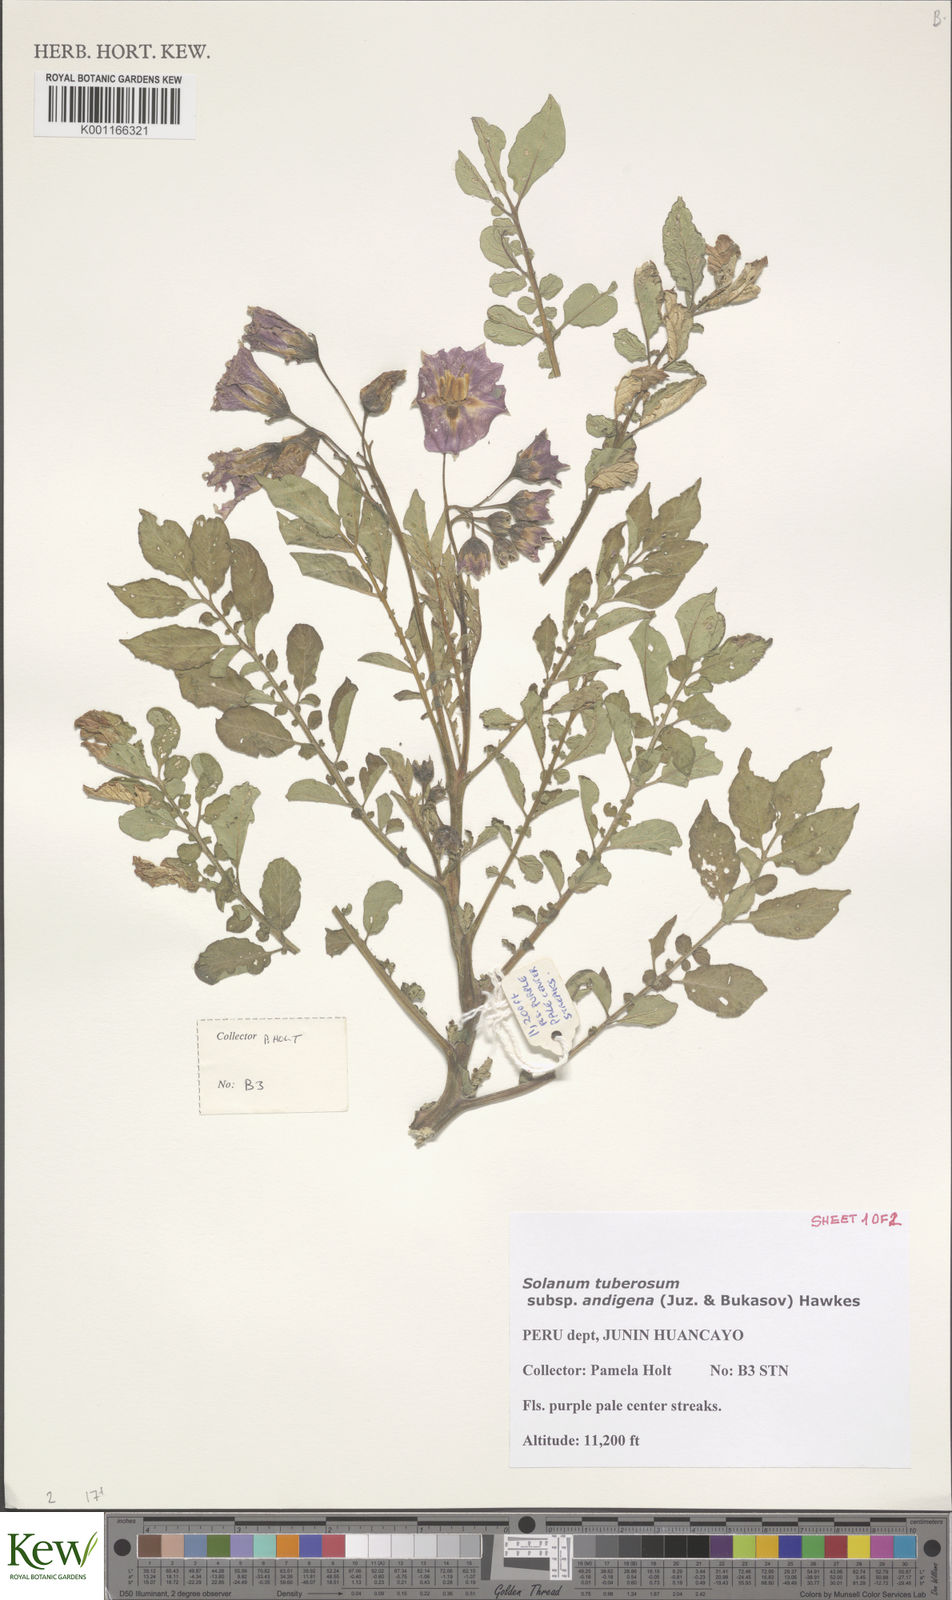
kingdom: Plantae
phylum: Tracheophyta
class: Magnoliopsida
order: Solanales
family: Solanaceae
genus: Solanum
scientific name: Solanum tuberosum
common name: Potato
